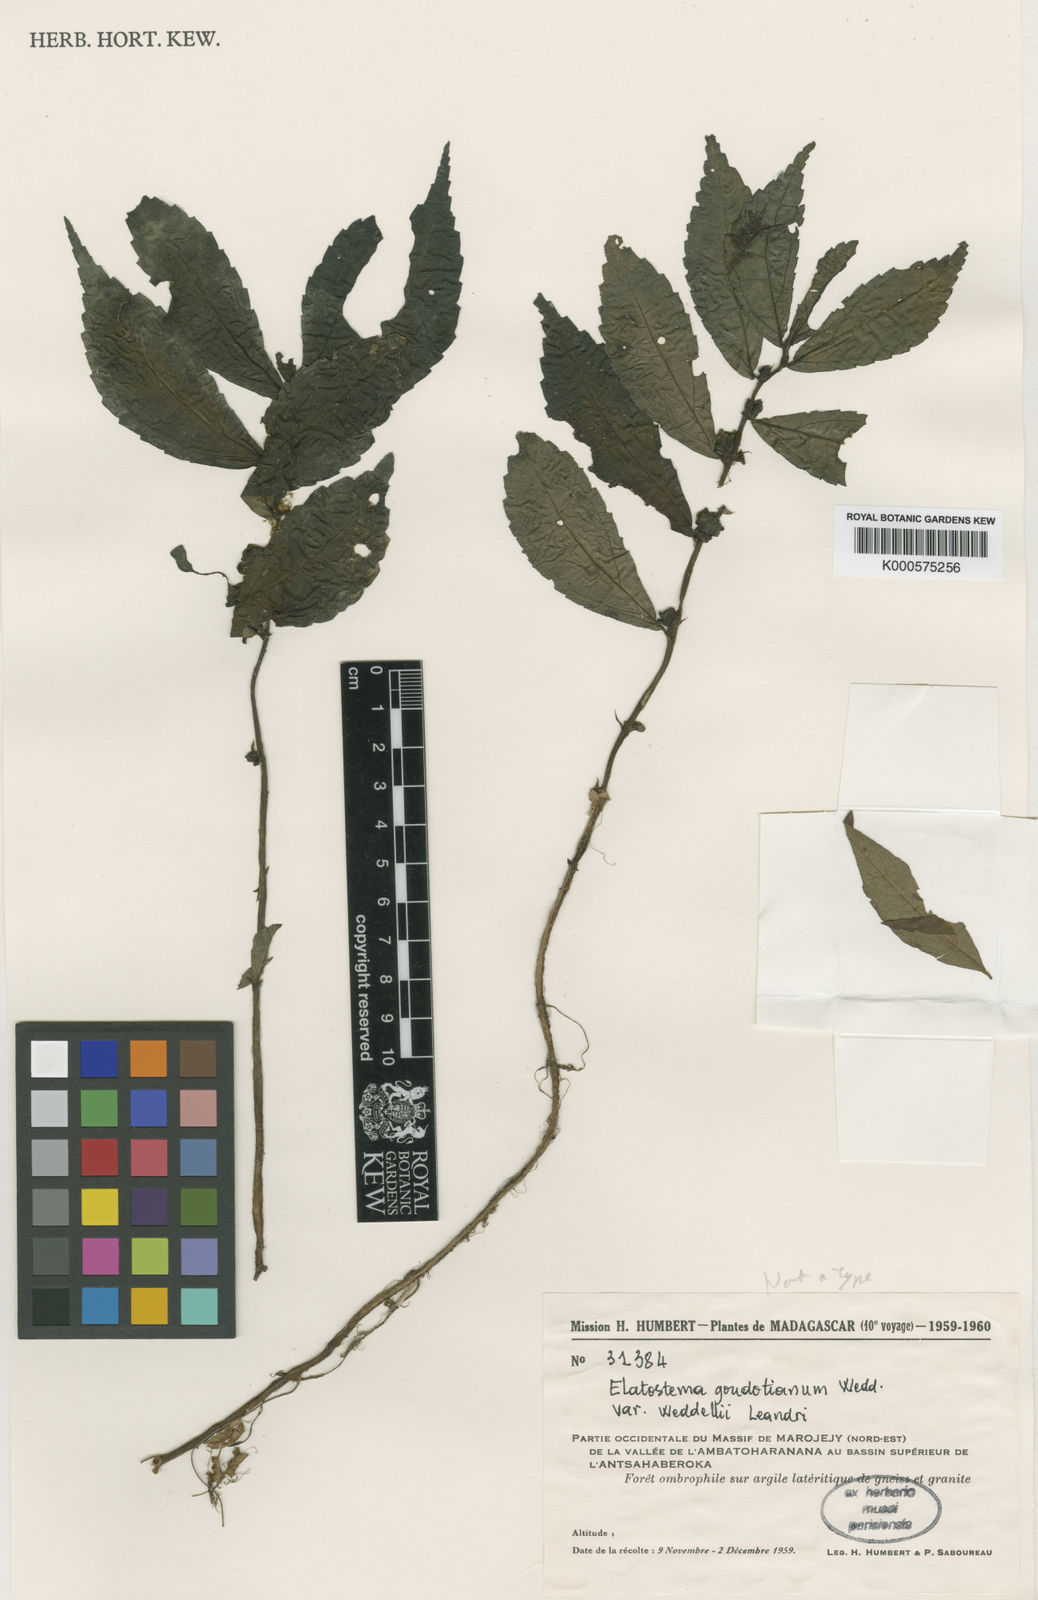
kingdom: Plantae
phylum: Tracheophyta
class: Magnoliopsida
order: Rosales
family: Urticaceae
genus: Elatostema
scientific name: Elatostema goudotianum
